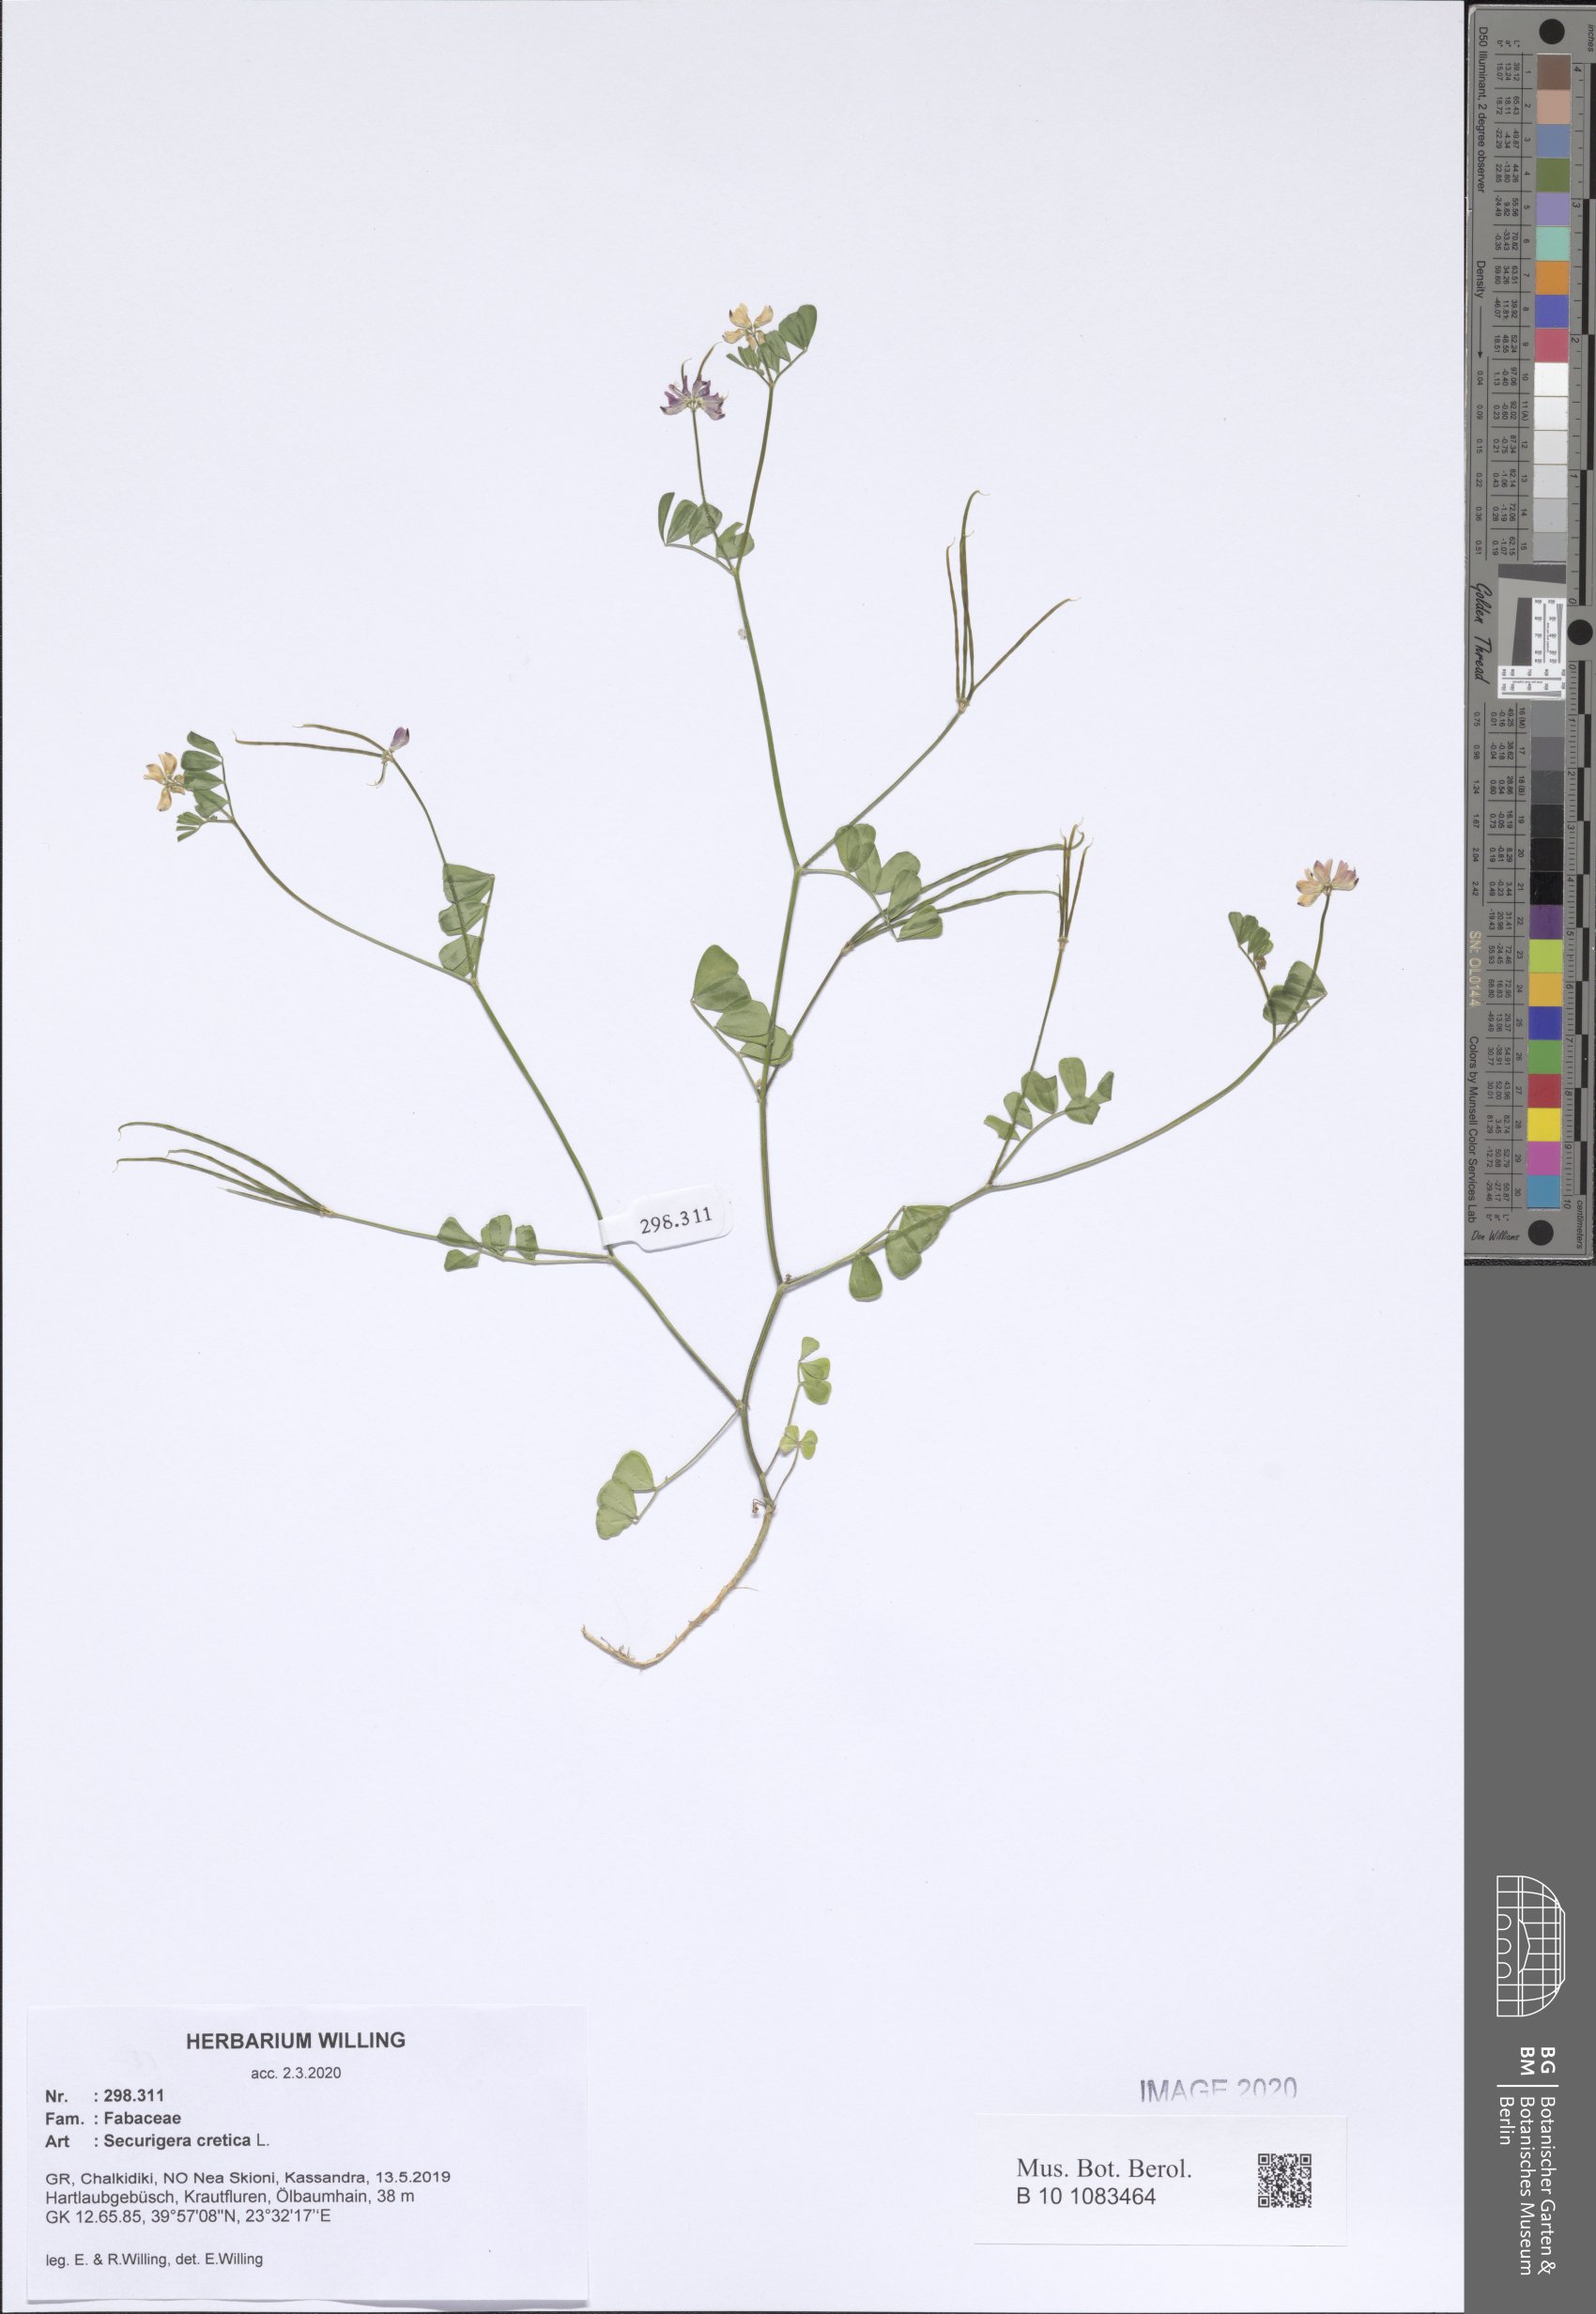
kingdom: Plantae
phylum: Tracheophyta
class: Magnoliopsida
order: Fabales
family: Fabaceae
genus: Coronilla
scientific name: Coronilla cretica
